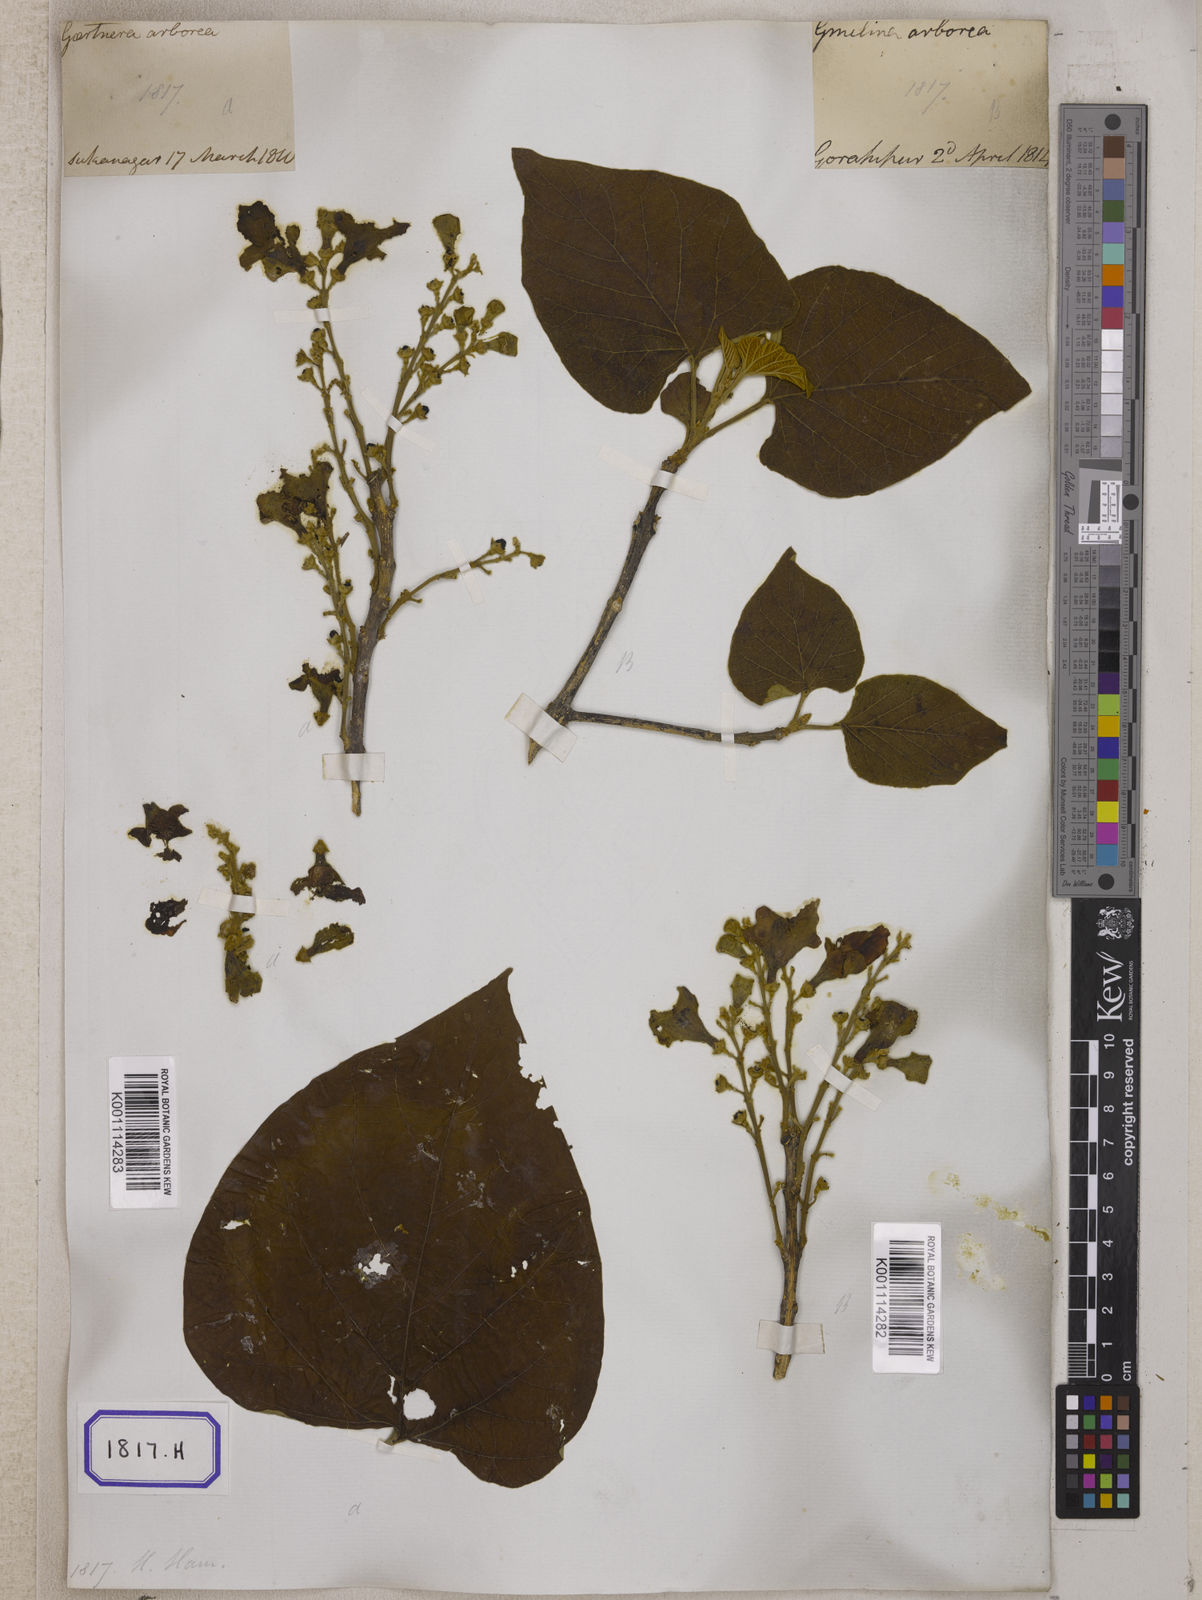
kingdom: Plantae
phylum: Tracheophyta
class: Magnoliopsida
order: Lamiales
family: Lamiaceae
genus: Gmelina
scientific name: Gmelina
